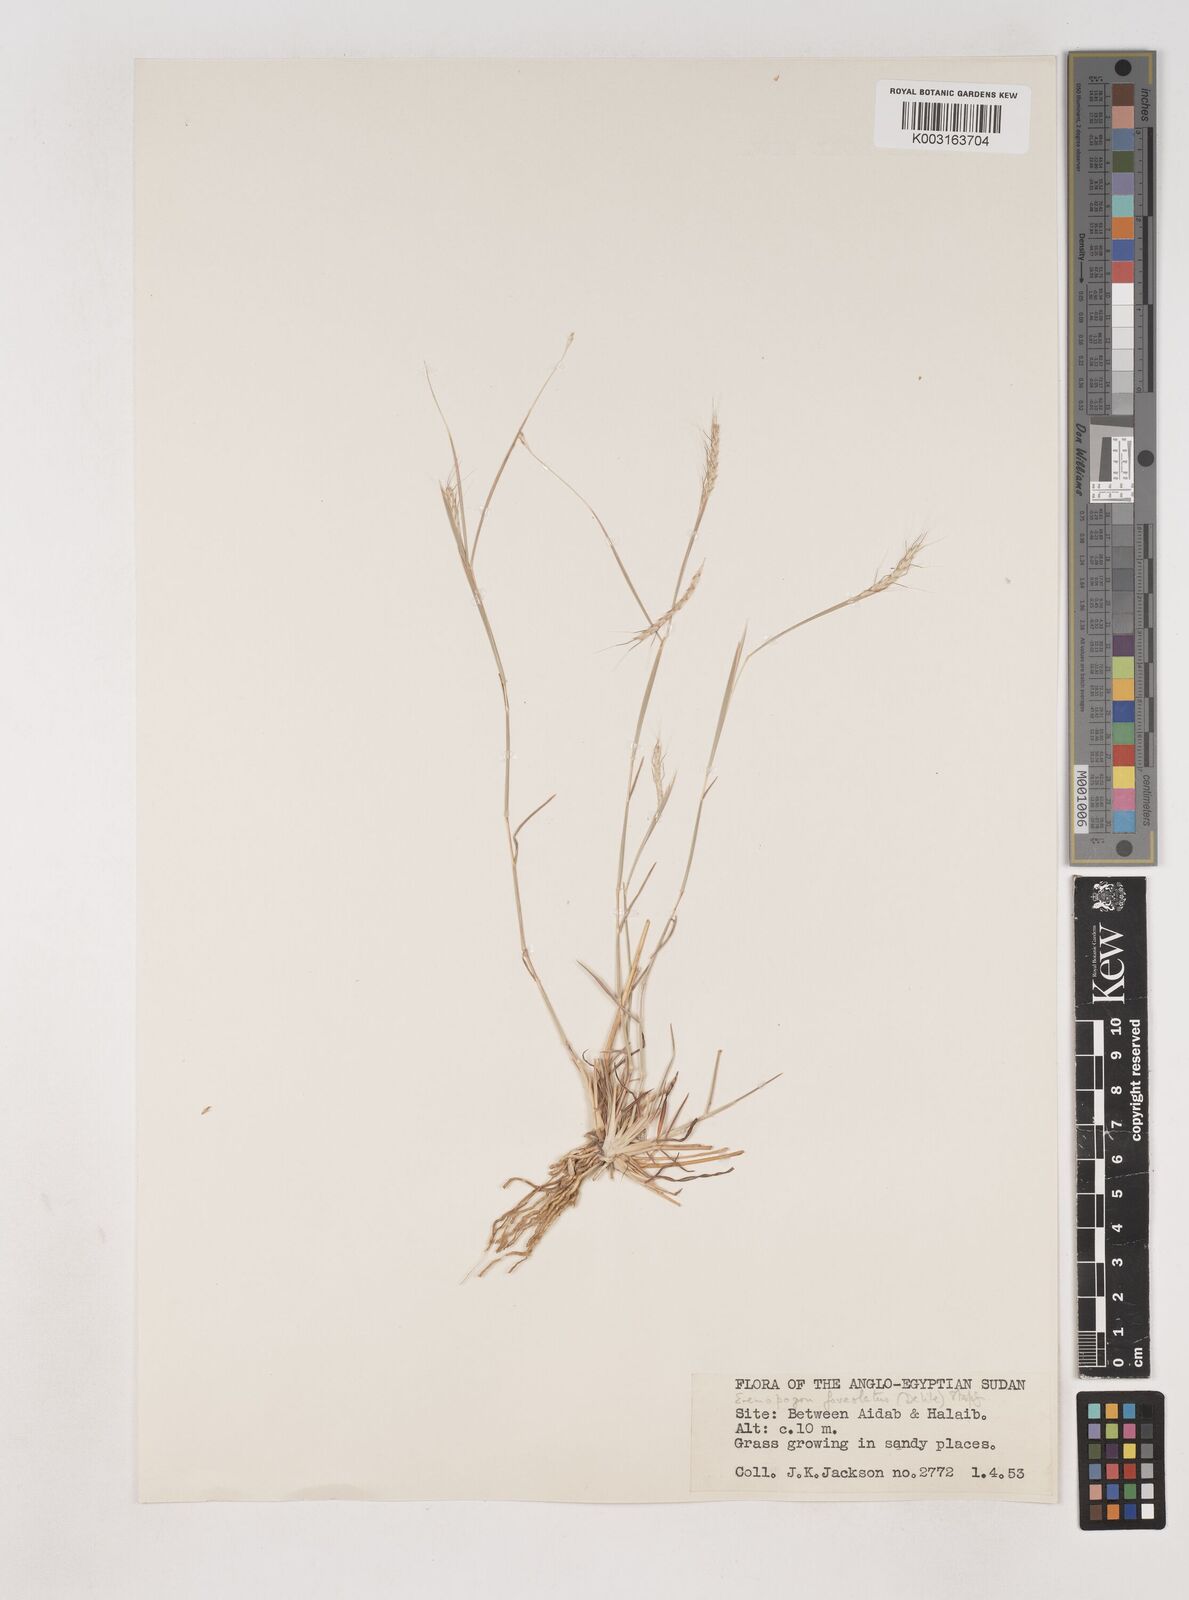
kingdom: Plantae
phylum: Tracheophyta
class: Liliopsida
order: Poales
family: Poaceae
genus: Dichanthium
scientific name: Dichanthium foveolatum
